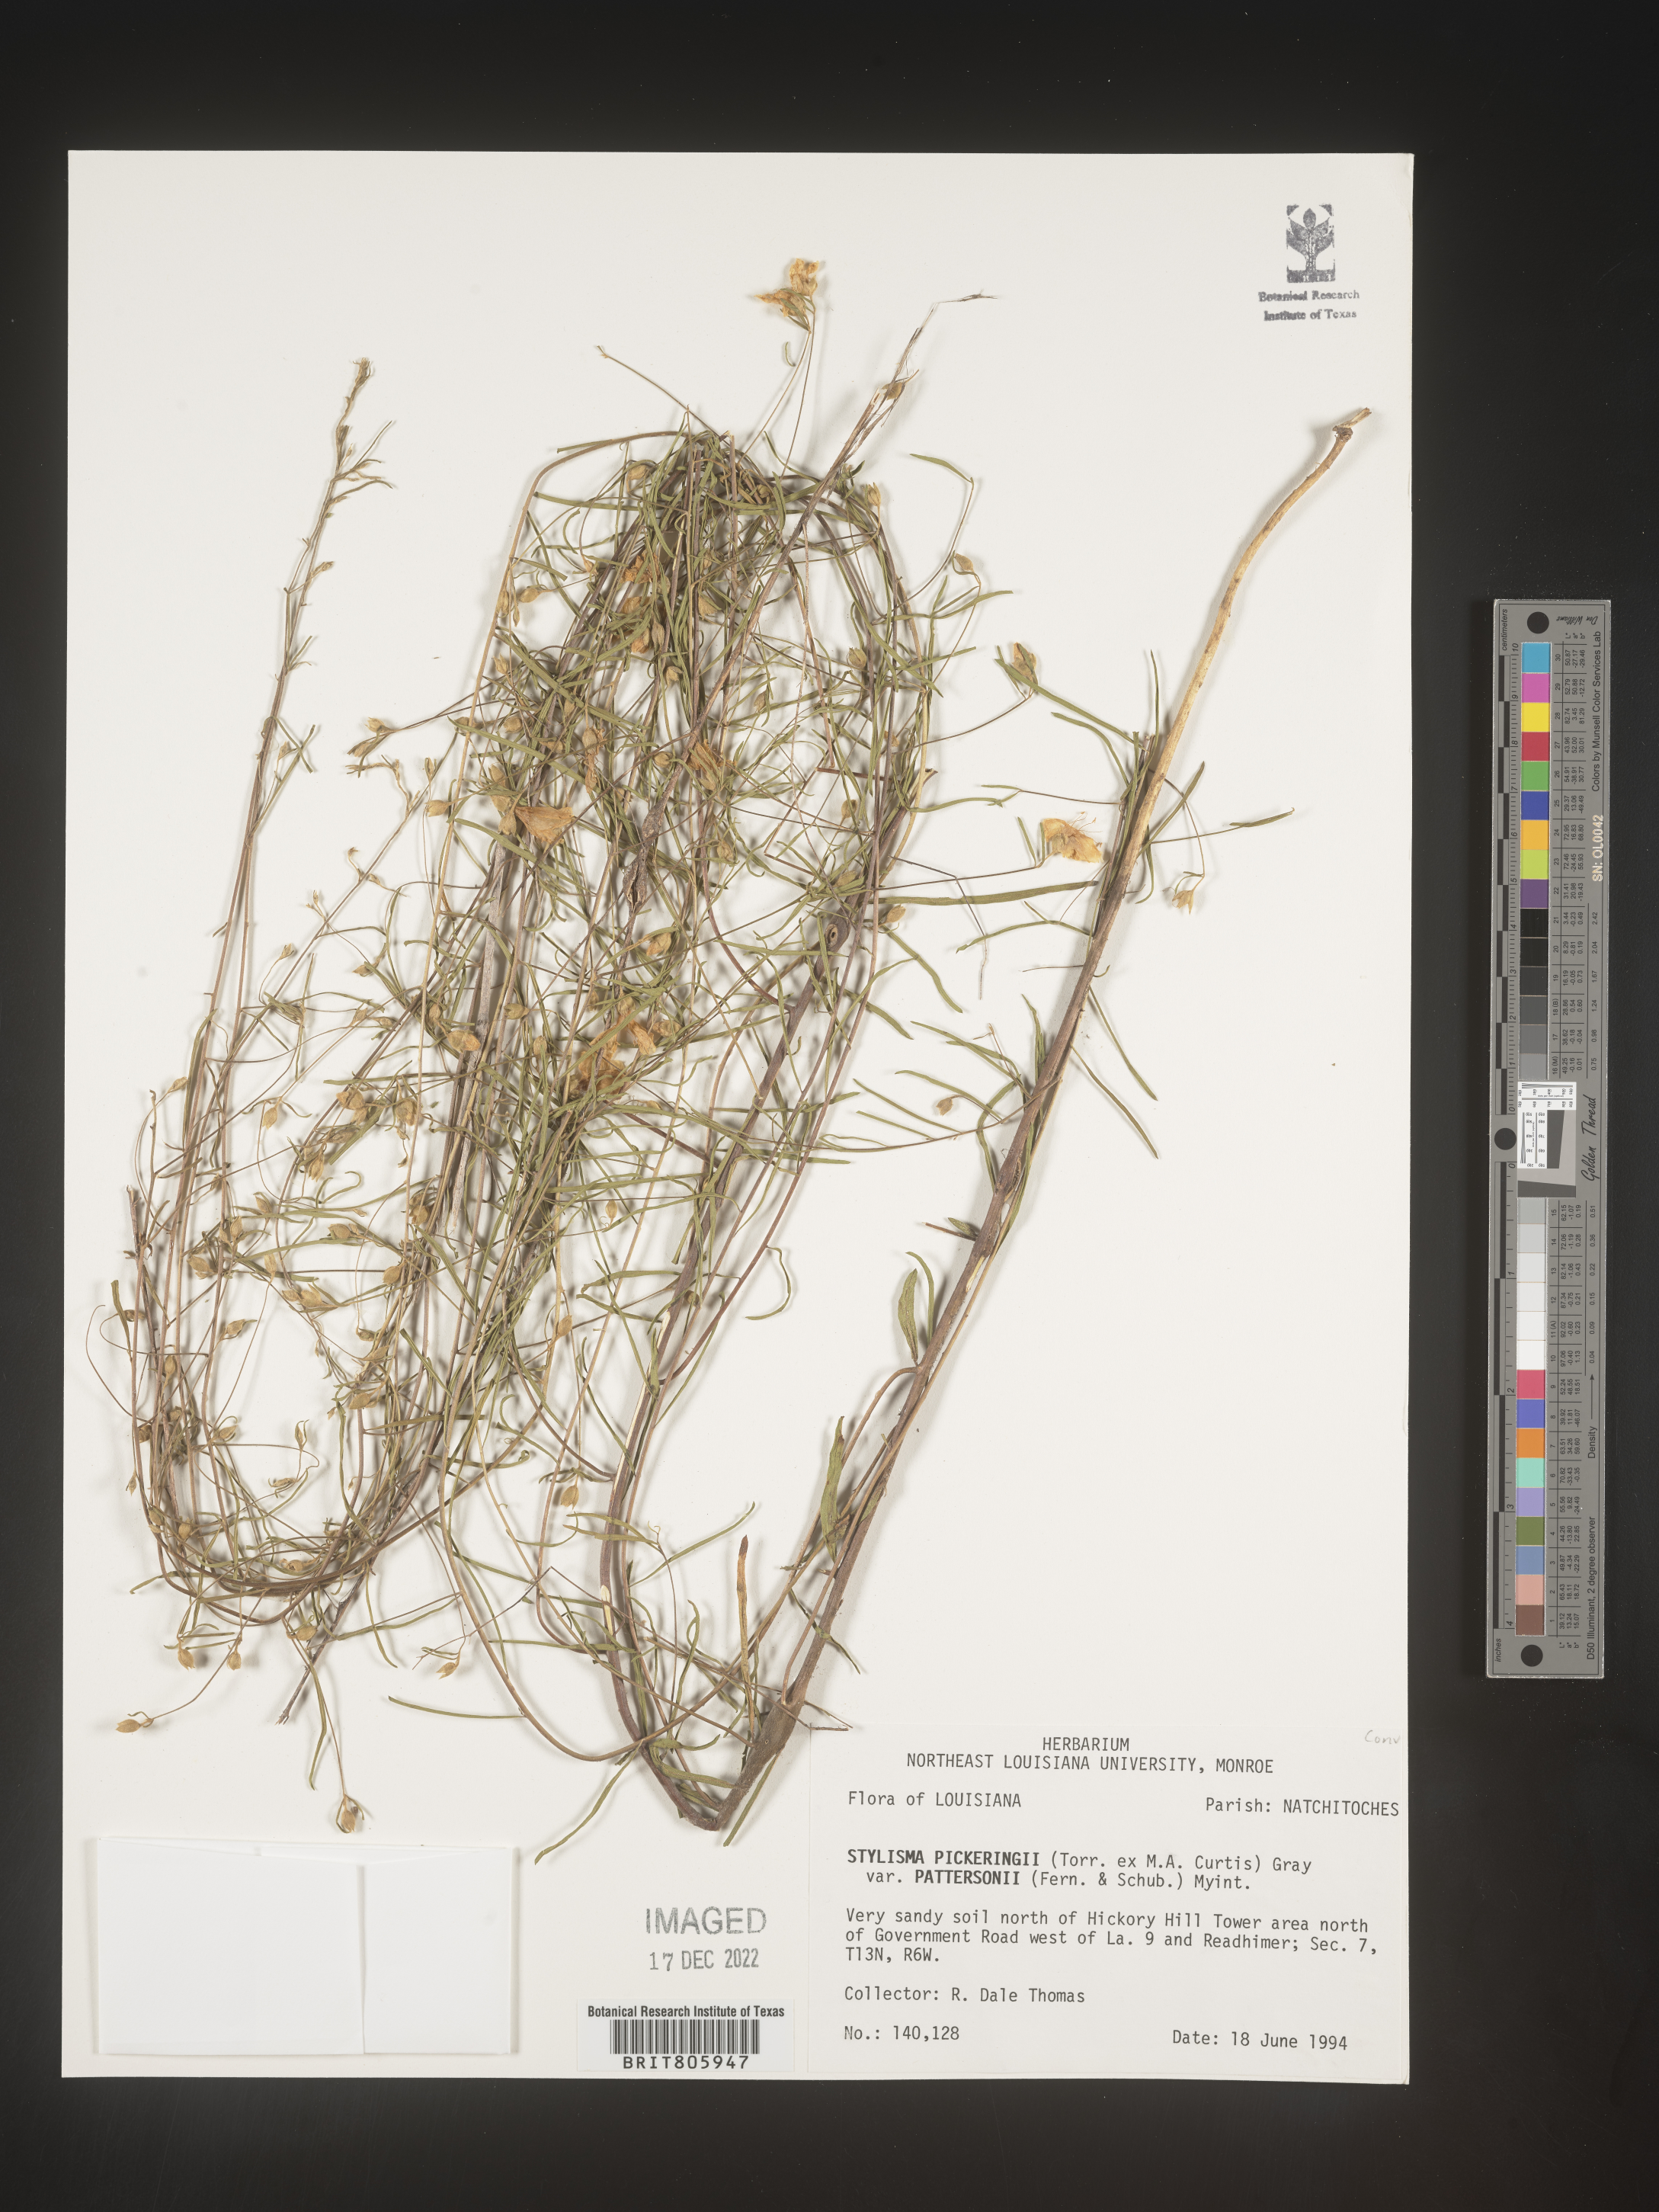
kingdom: Plantae
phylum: Tracheophyta
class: Magnoliopsida
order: Solanales
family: Convolvulaceae
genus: Stylisma
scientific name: Stylisma
